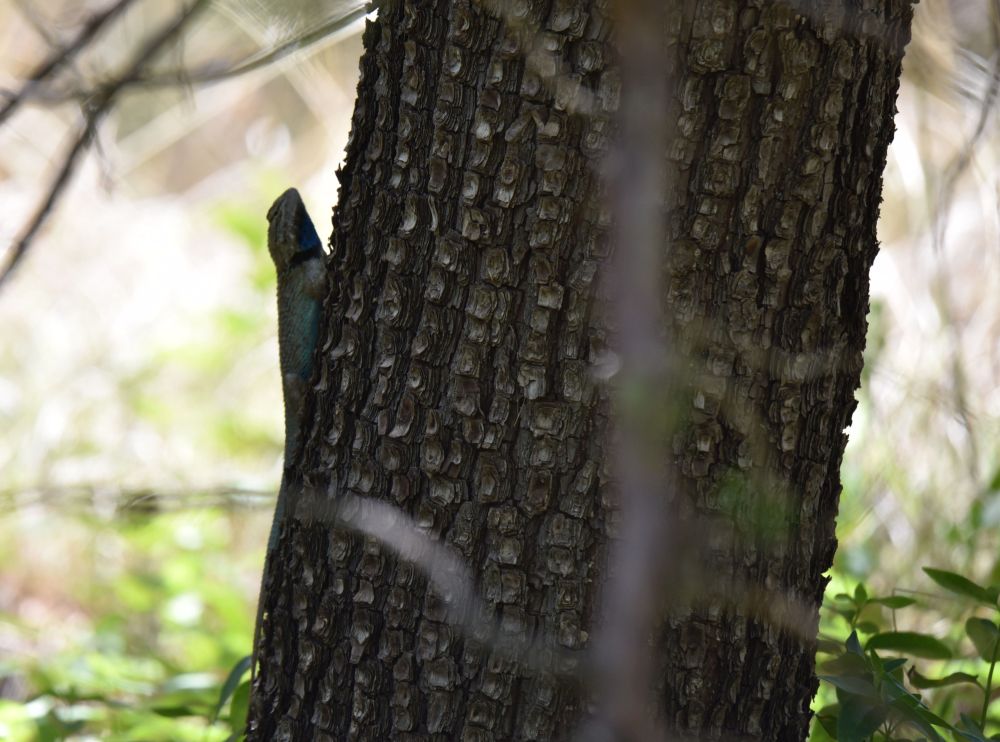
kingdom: Animalia
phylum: Chordata
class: Squamata
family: Phrynosomatidae
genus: Sceloporus
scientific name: Sceloporus magister
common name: Desert spiny lizard
